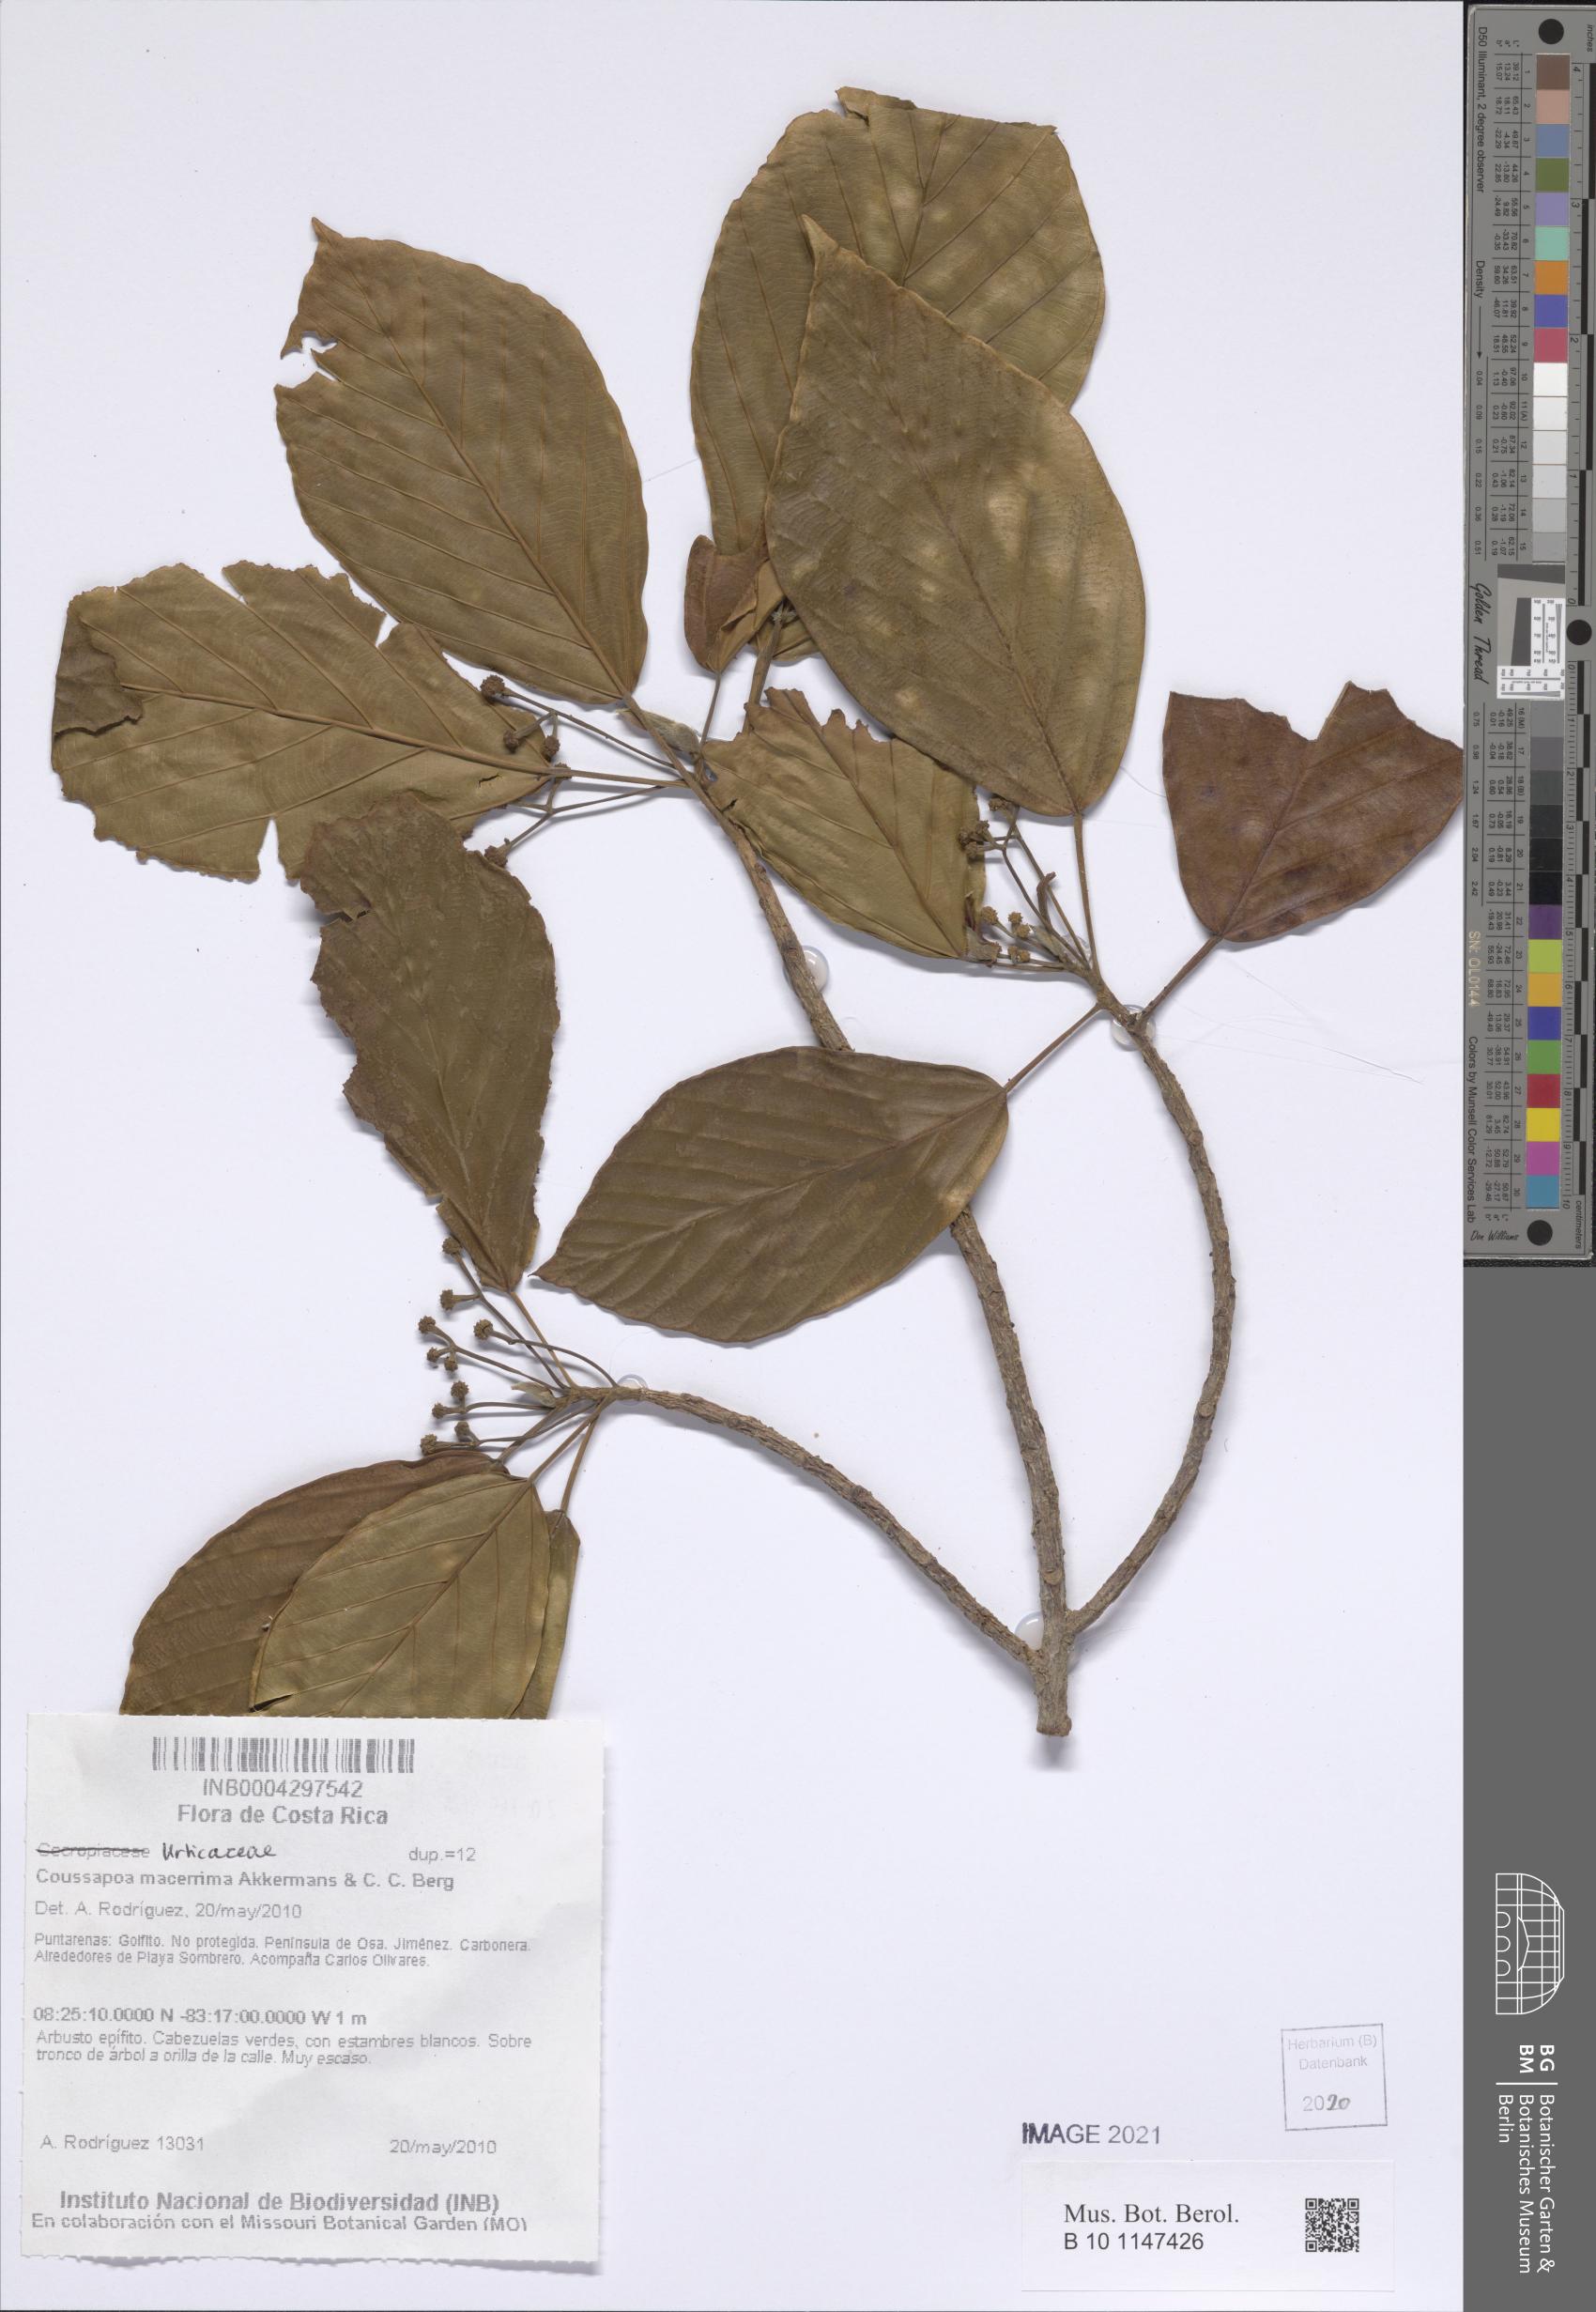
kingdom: Plantae
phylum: Tracheophyta
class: Magnoliopsida
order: Rosales
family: Urticaceae
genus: Coussapoa
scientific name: Coussapoa macerrima
